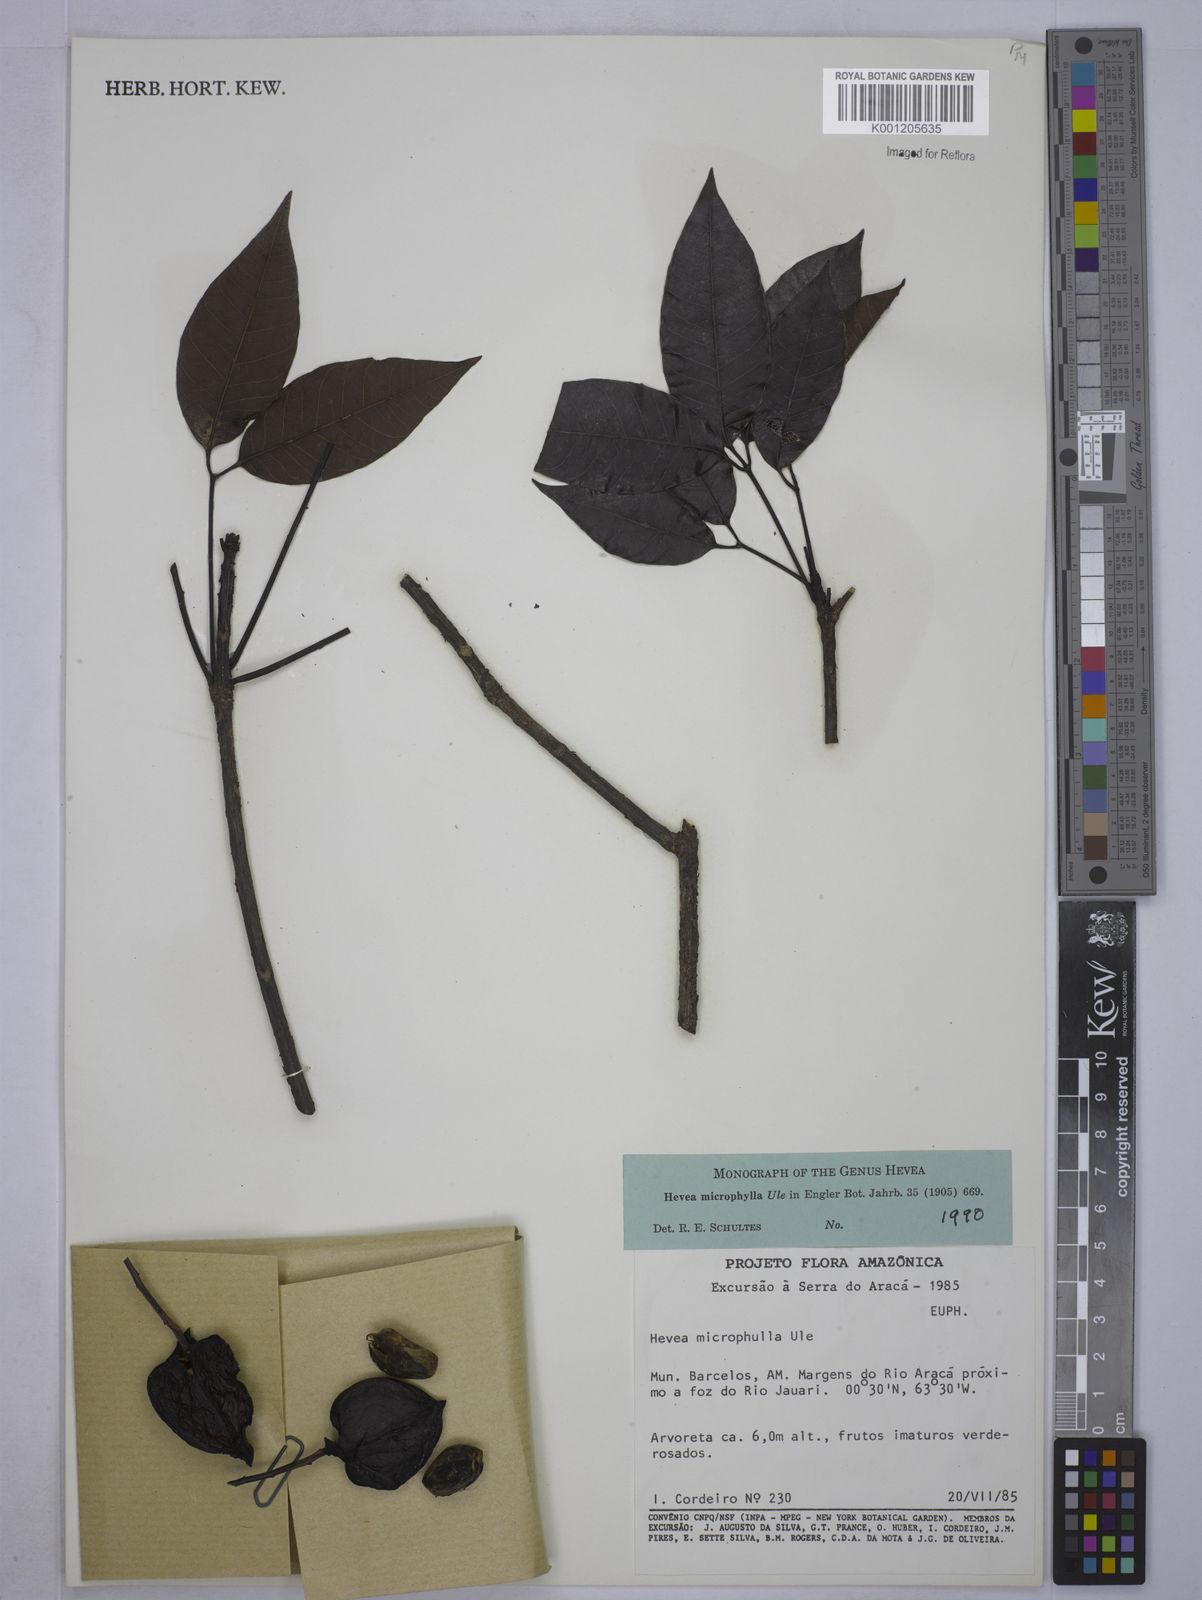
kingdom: Plantae
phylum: Tracheophyta
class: Magnoliopsida
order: Malpighiales
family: Euphorbiaceae
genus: Hevea
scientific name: Hevea microphylla
